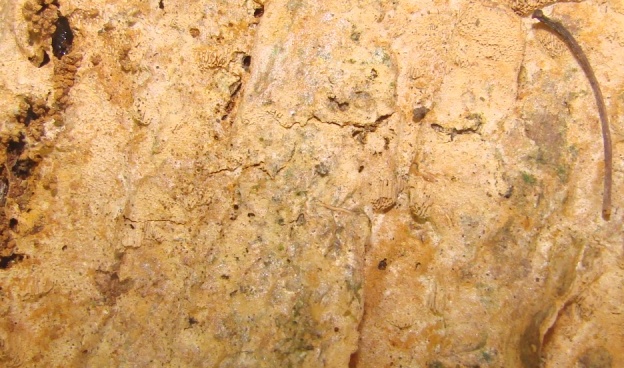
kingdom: Fungi
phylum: Basidiomycota
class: Agaricomycetes
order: Hymenochaetales
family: Hymenochaetaceae
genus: Fuscoporia
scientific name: Fuscoporia ferruginosa
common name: rustbrun ildporesvamp
